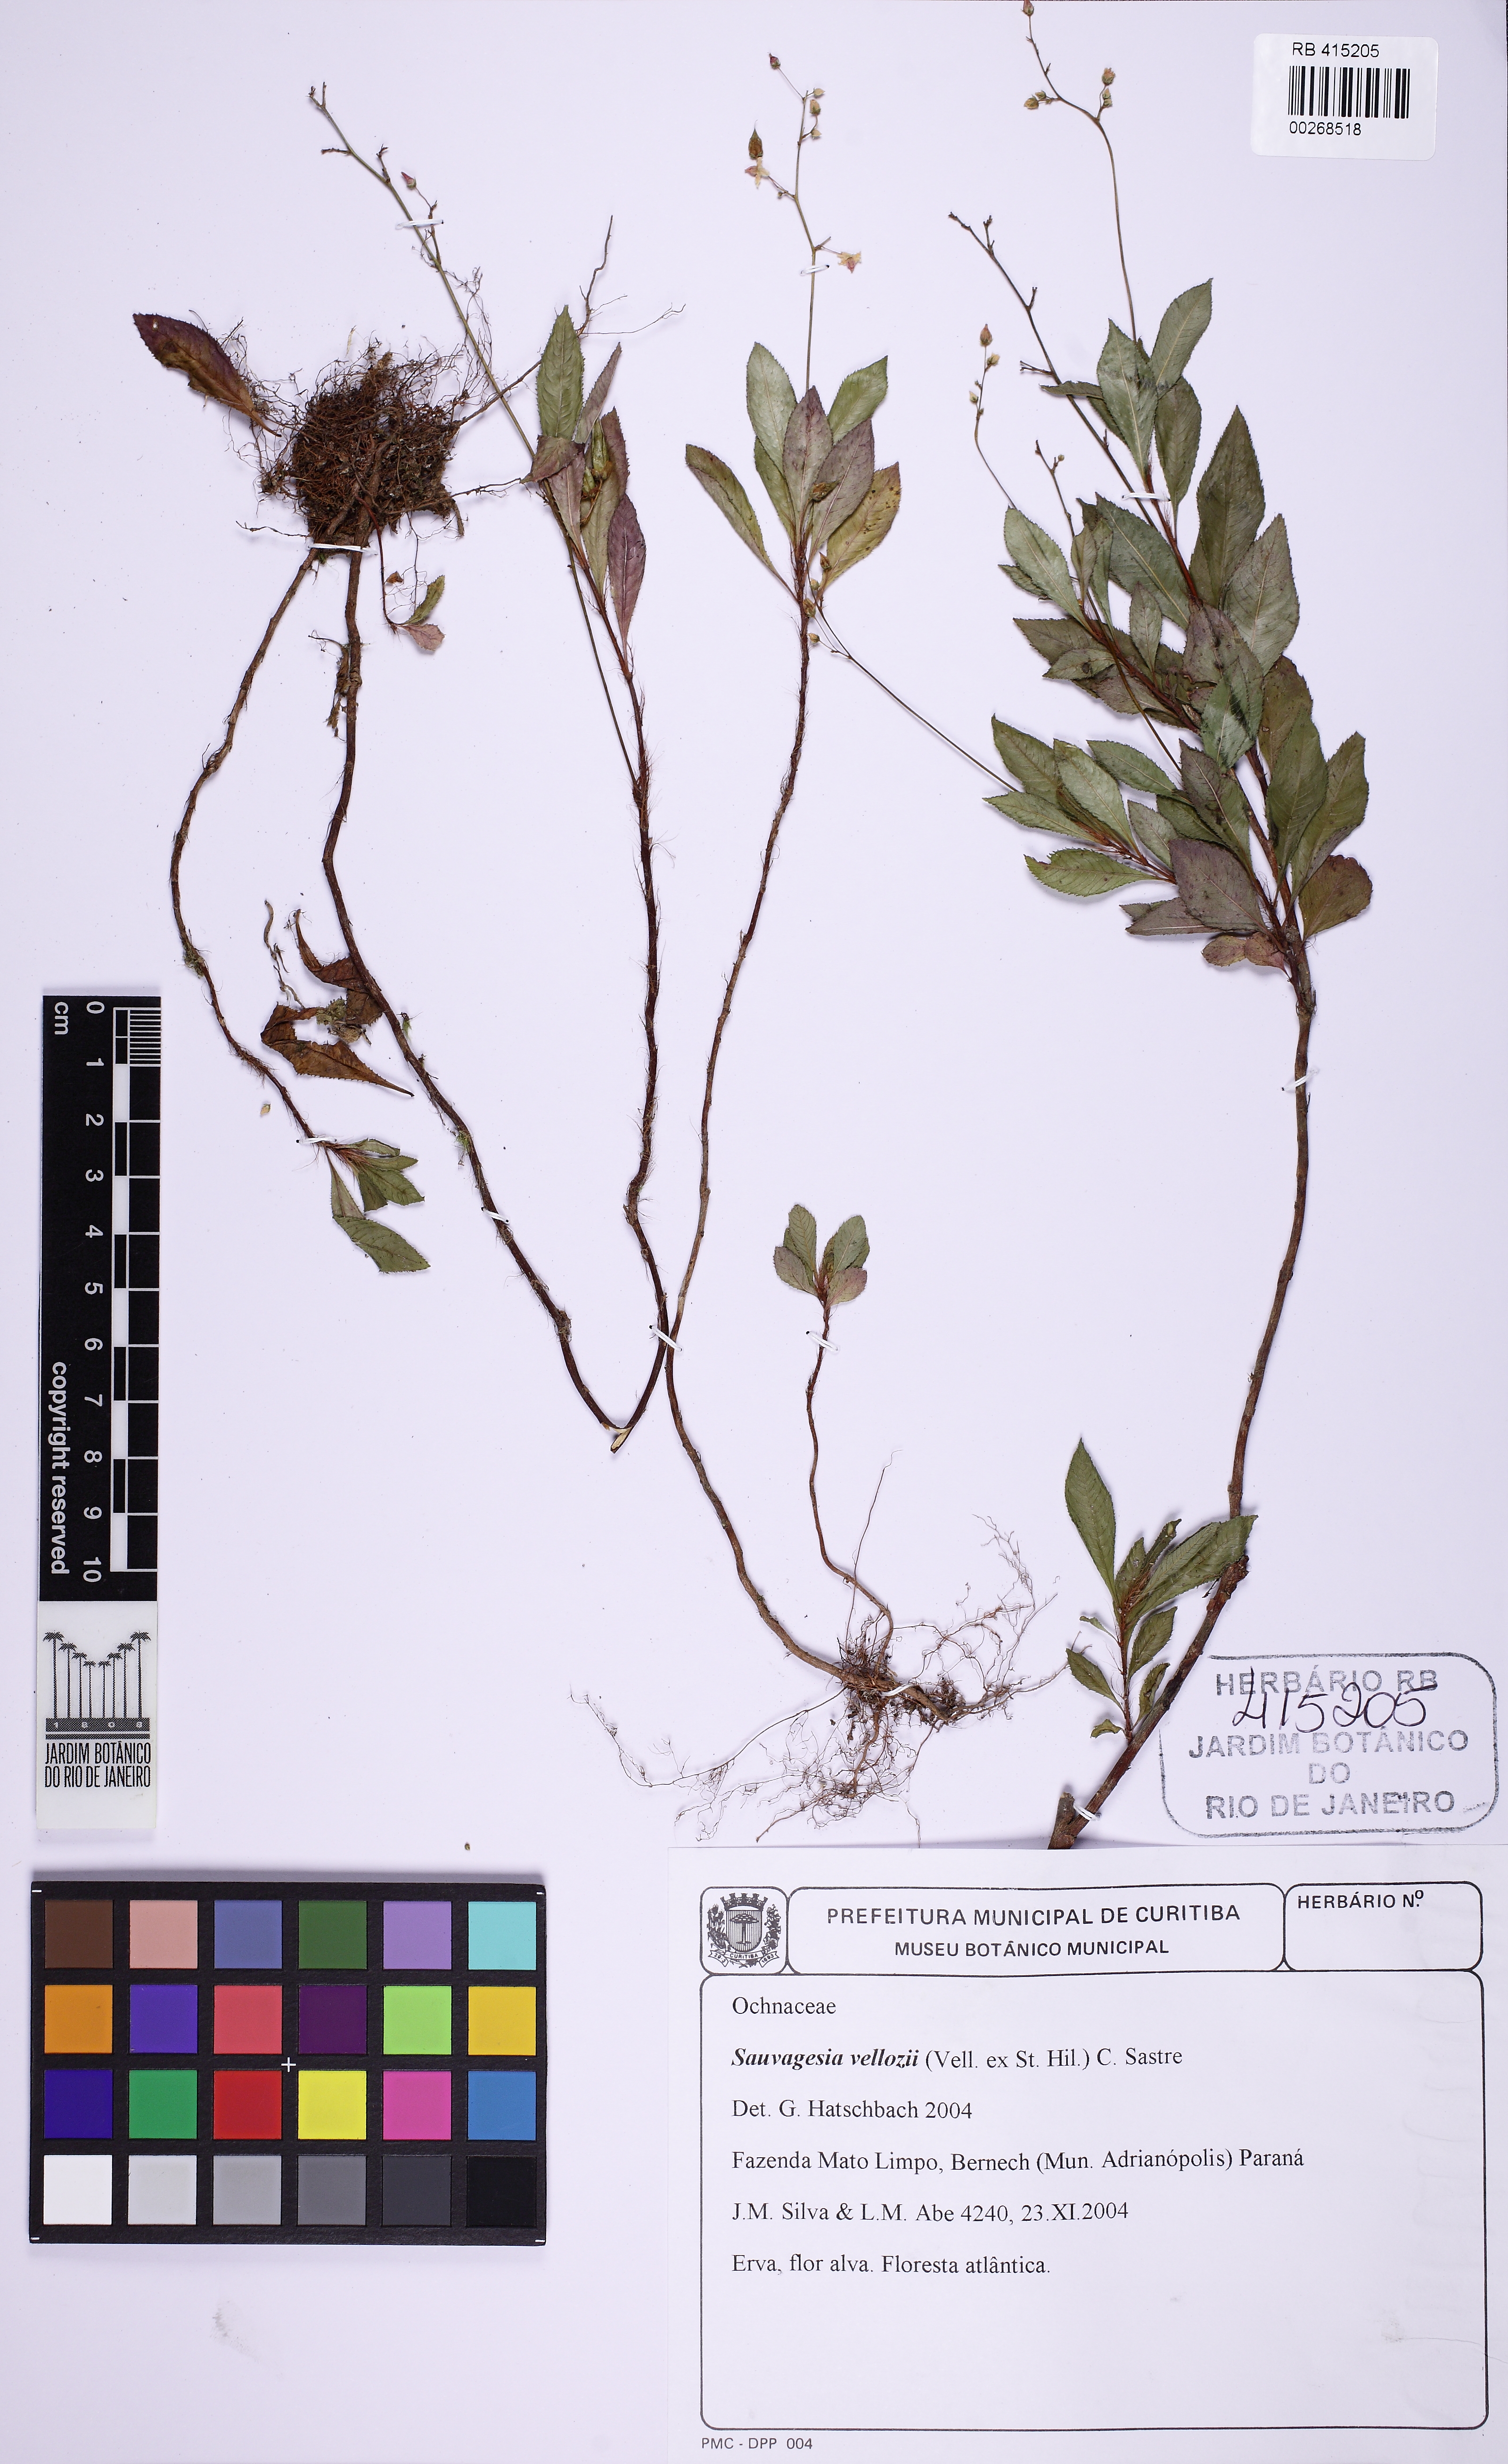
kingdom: Plantae
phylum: Tracheophyta
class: Magnoliopsida
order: Malpighiales
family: Ochnaceae
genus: Sauvagesia
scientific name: Sauvagesia vellozii
